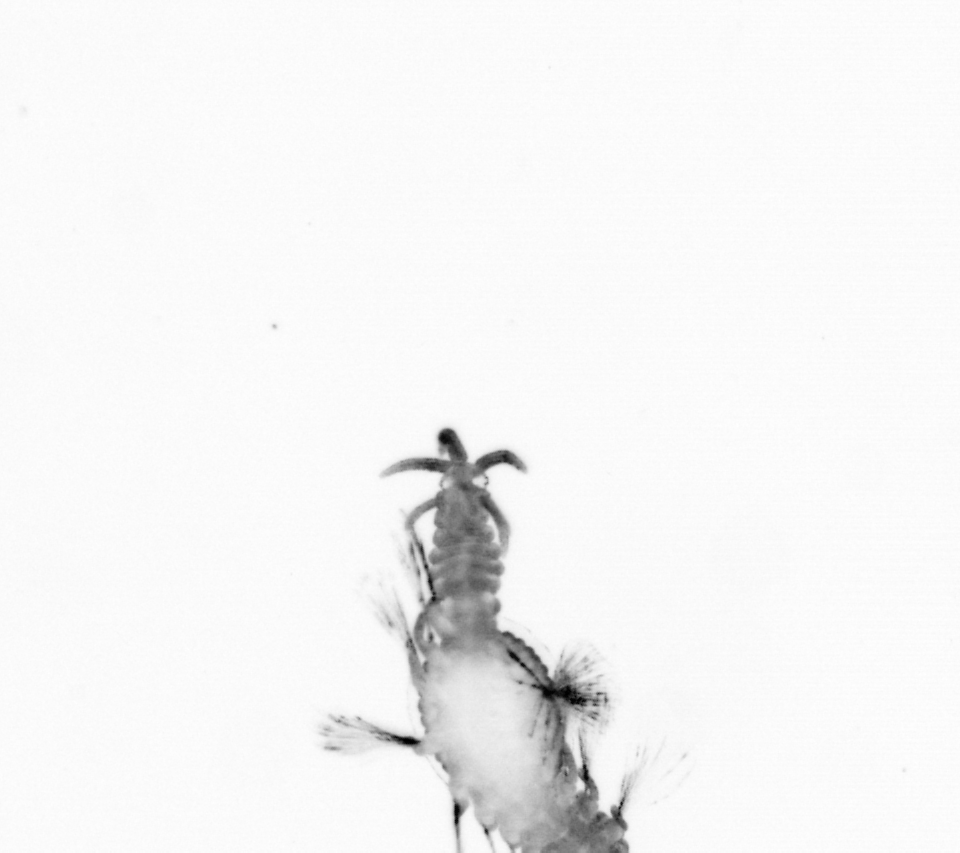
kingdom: Animalia
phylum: Arthropoda
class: Copepoda
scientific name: Copepoda
